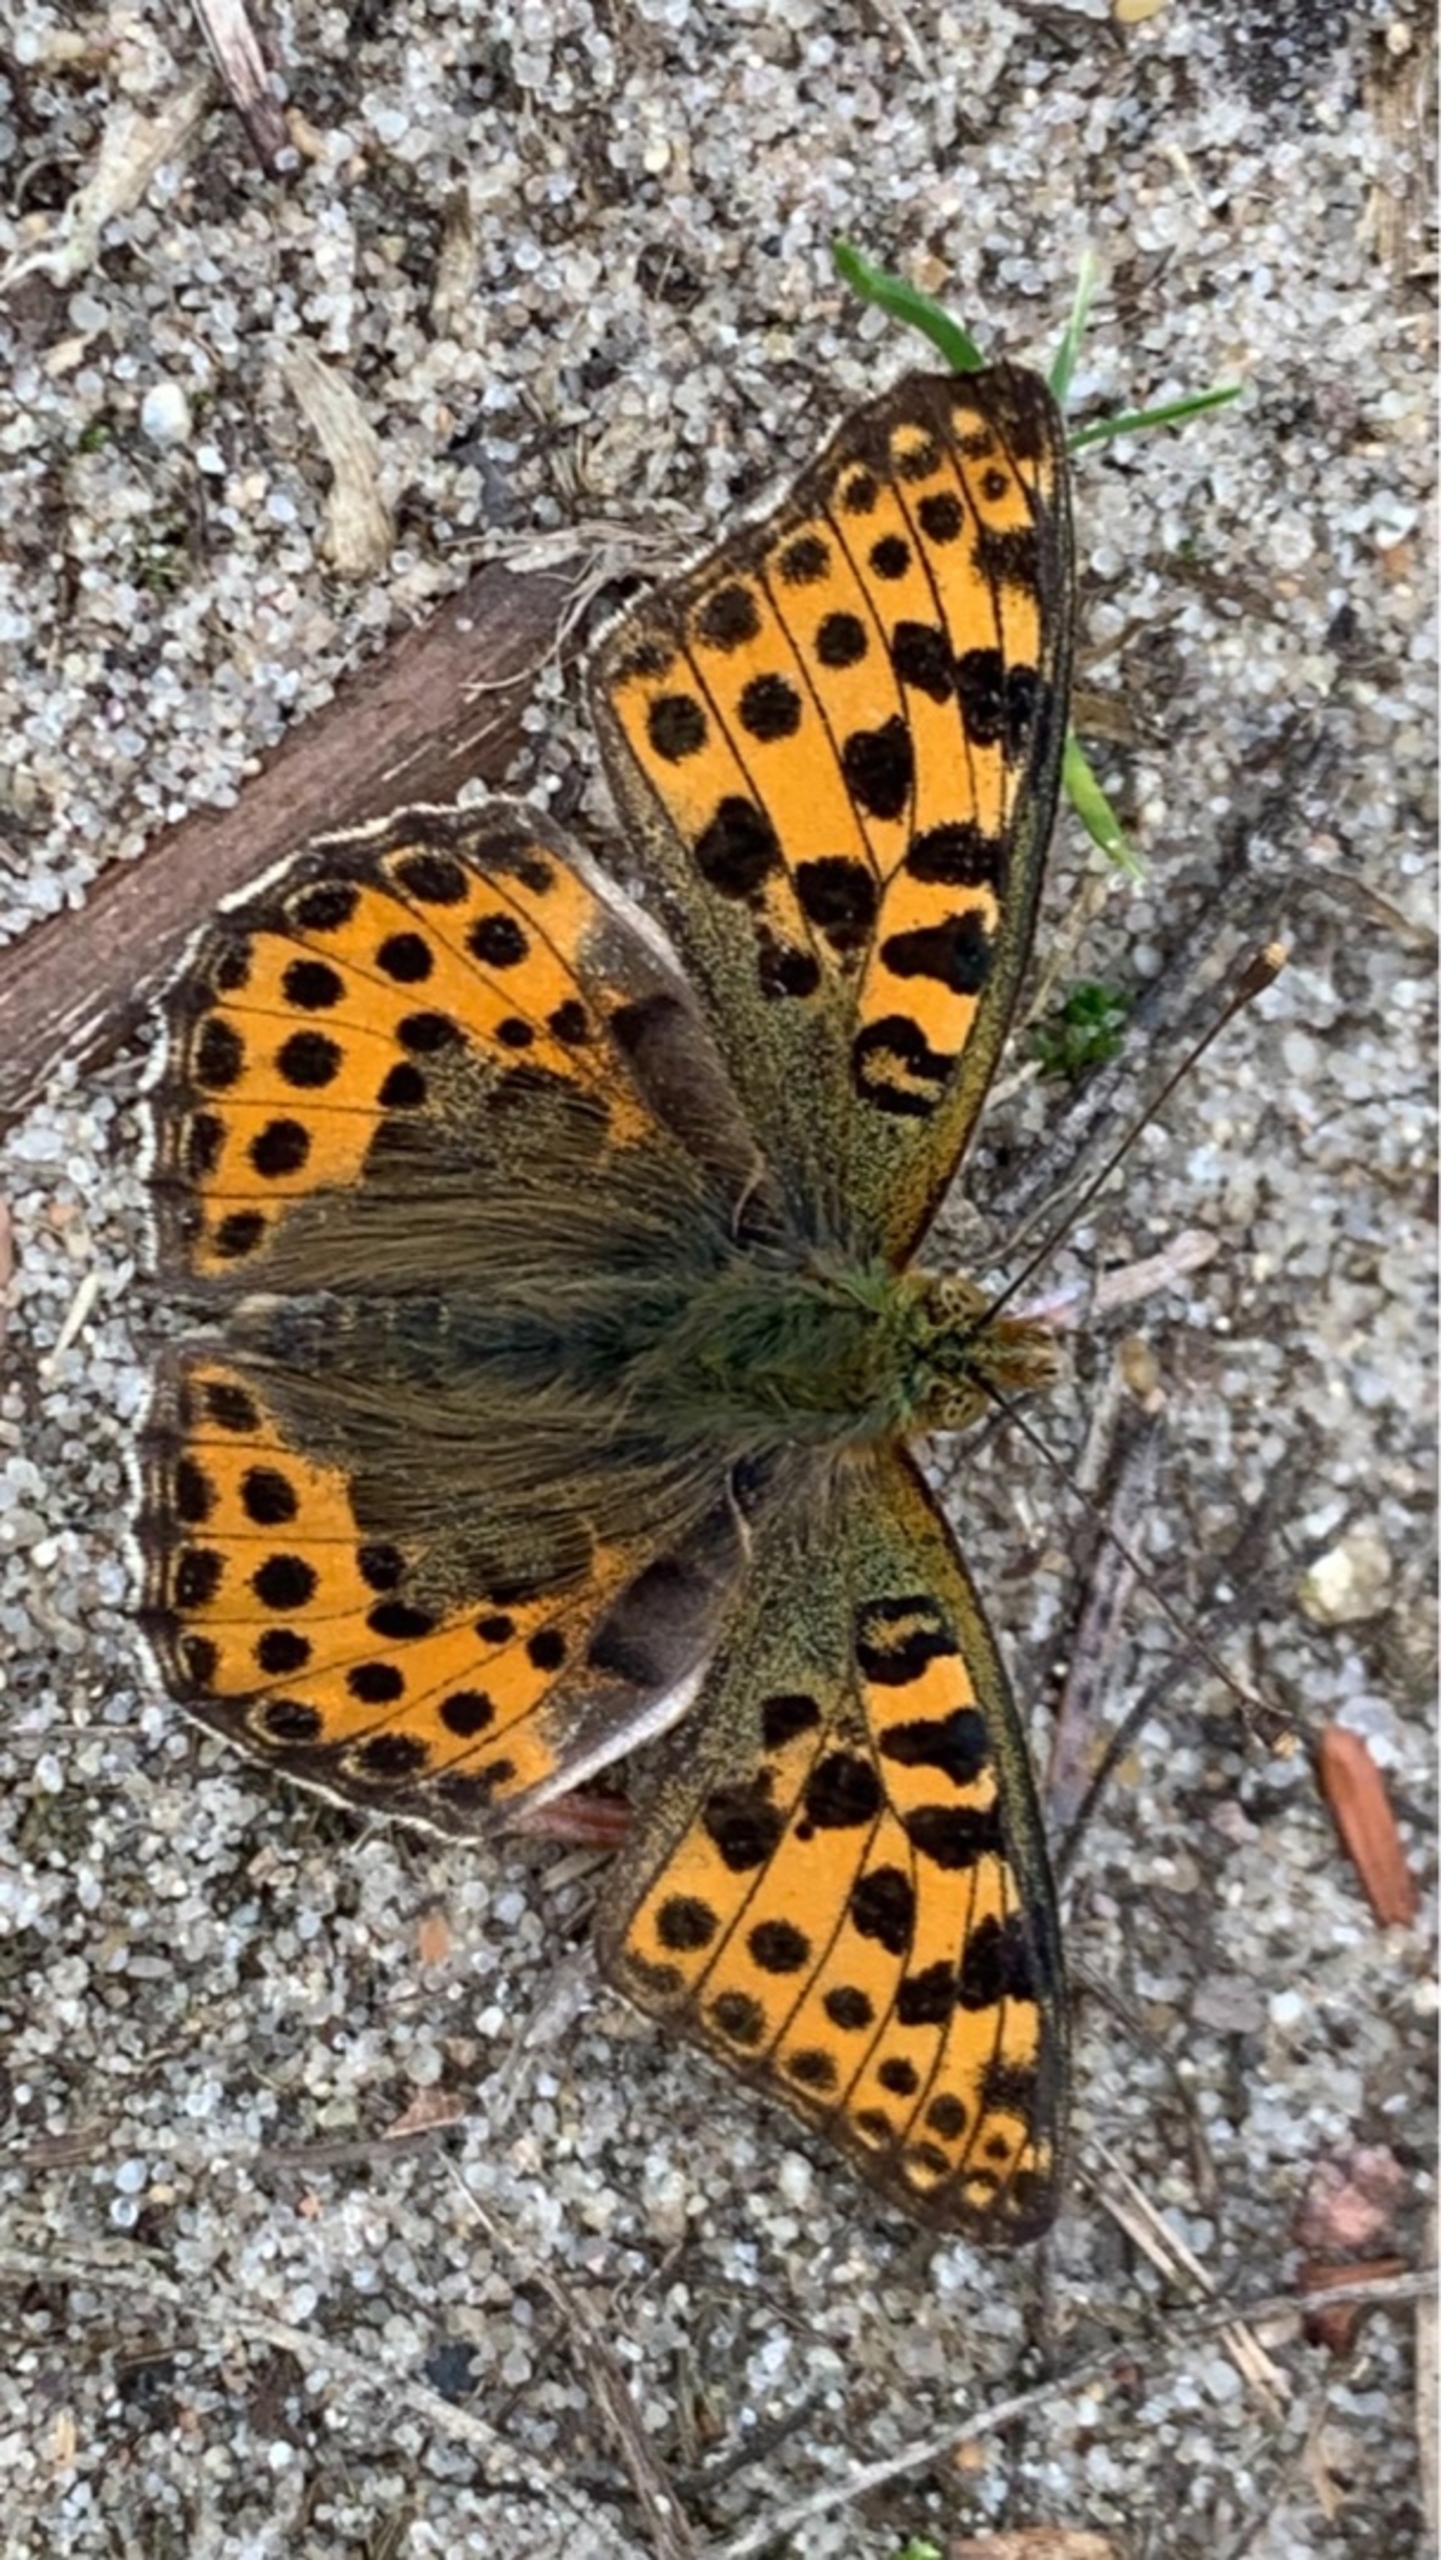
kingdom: Animalia
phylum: Arthropoda
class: Insecta
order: Lepidoptera
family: Nymphalidae
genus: Issoria
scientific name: Issoria lathonia
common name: Storplettet perlemorsommerfugl
